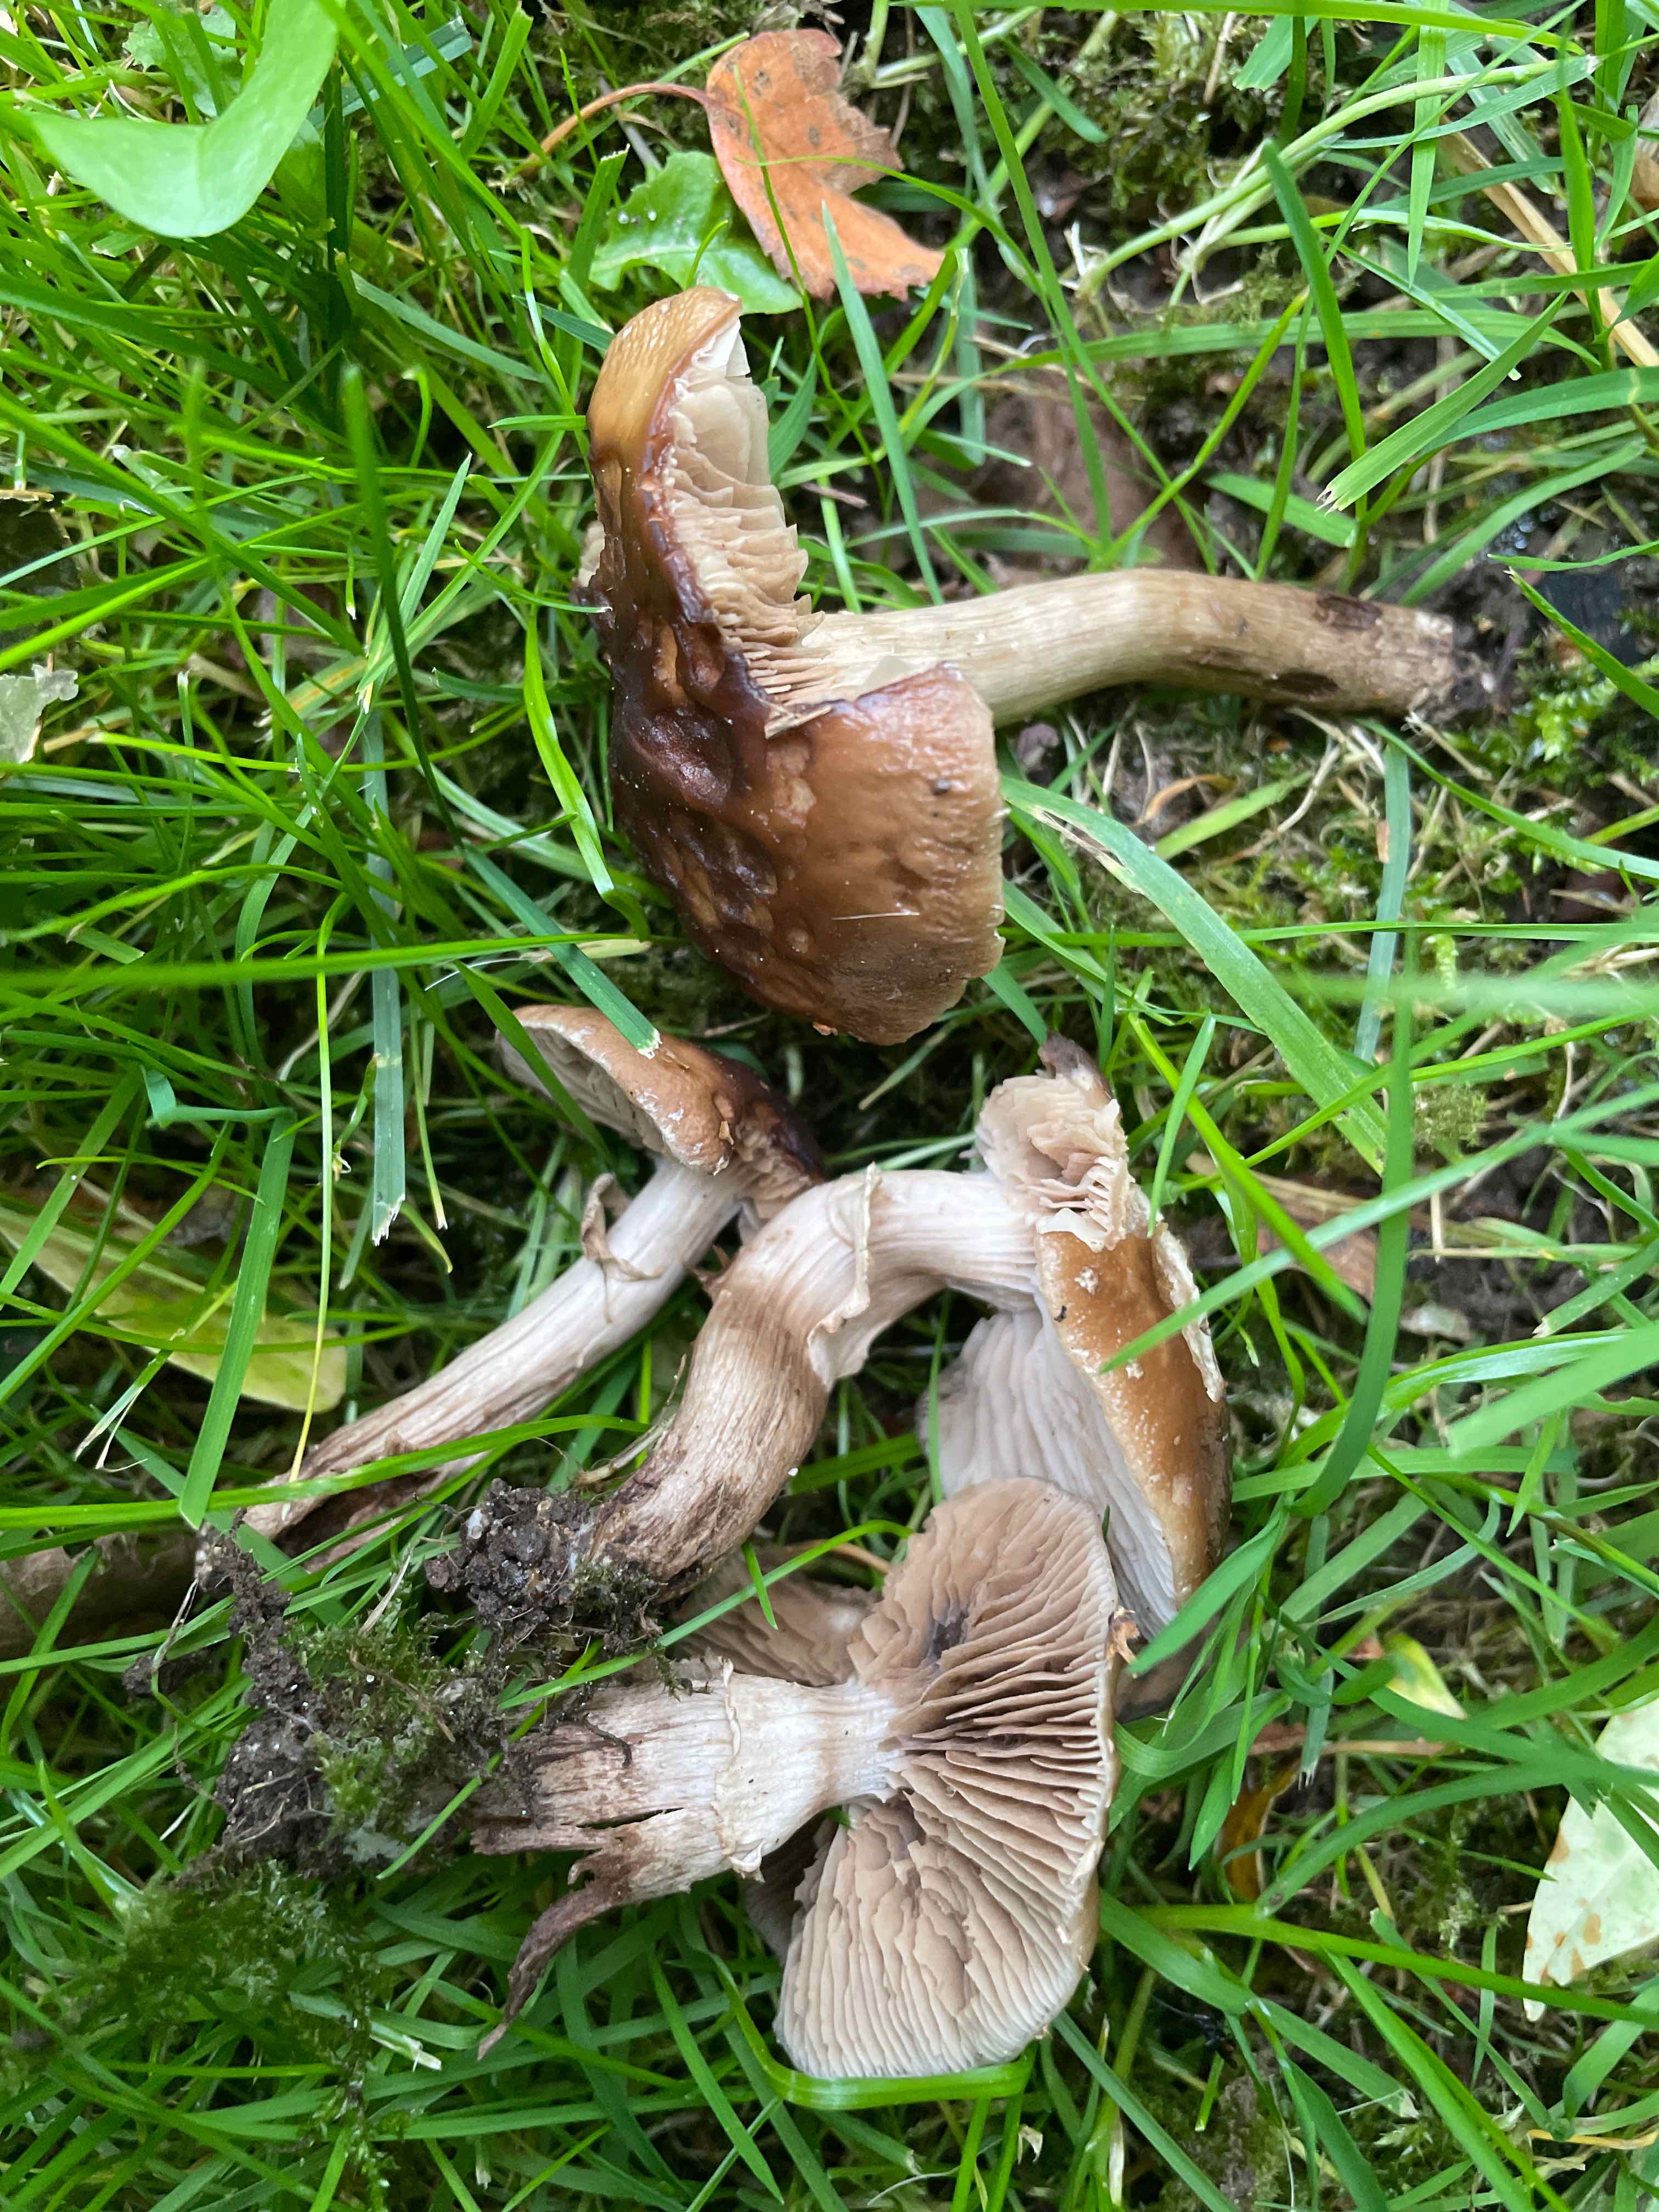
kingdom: Fungi
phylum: Basidiomycota
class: Agaricomycetes
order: Agaricales
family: Tubariaceae
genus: Cyclocybe
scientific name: Cyclocybe erebia
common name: mørk agerhat
